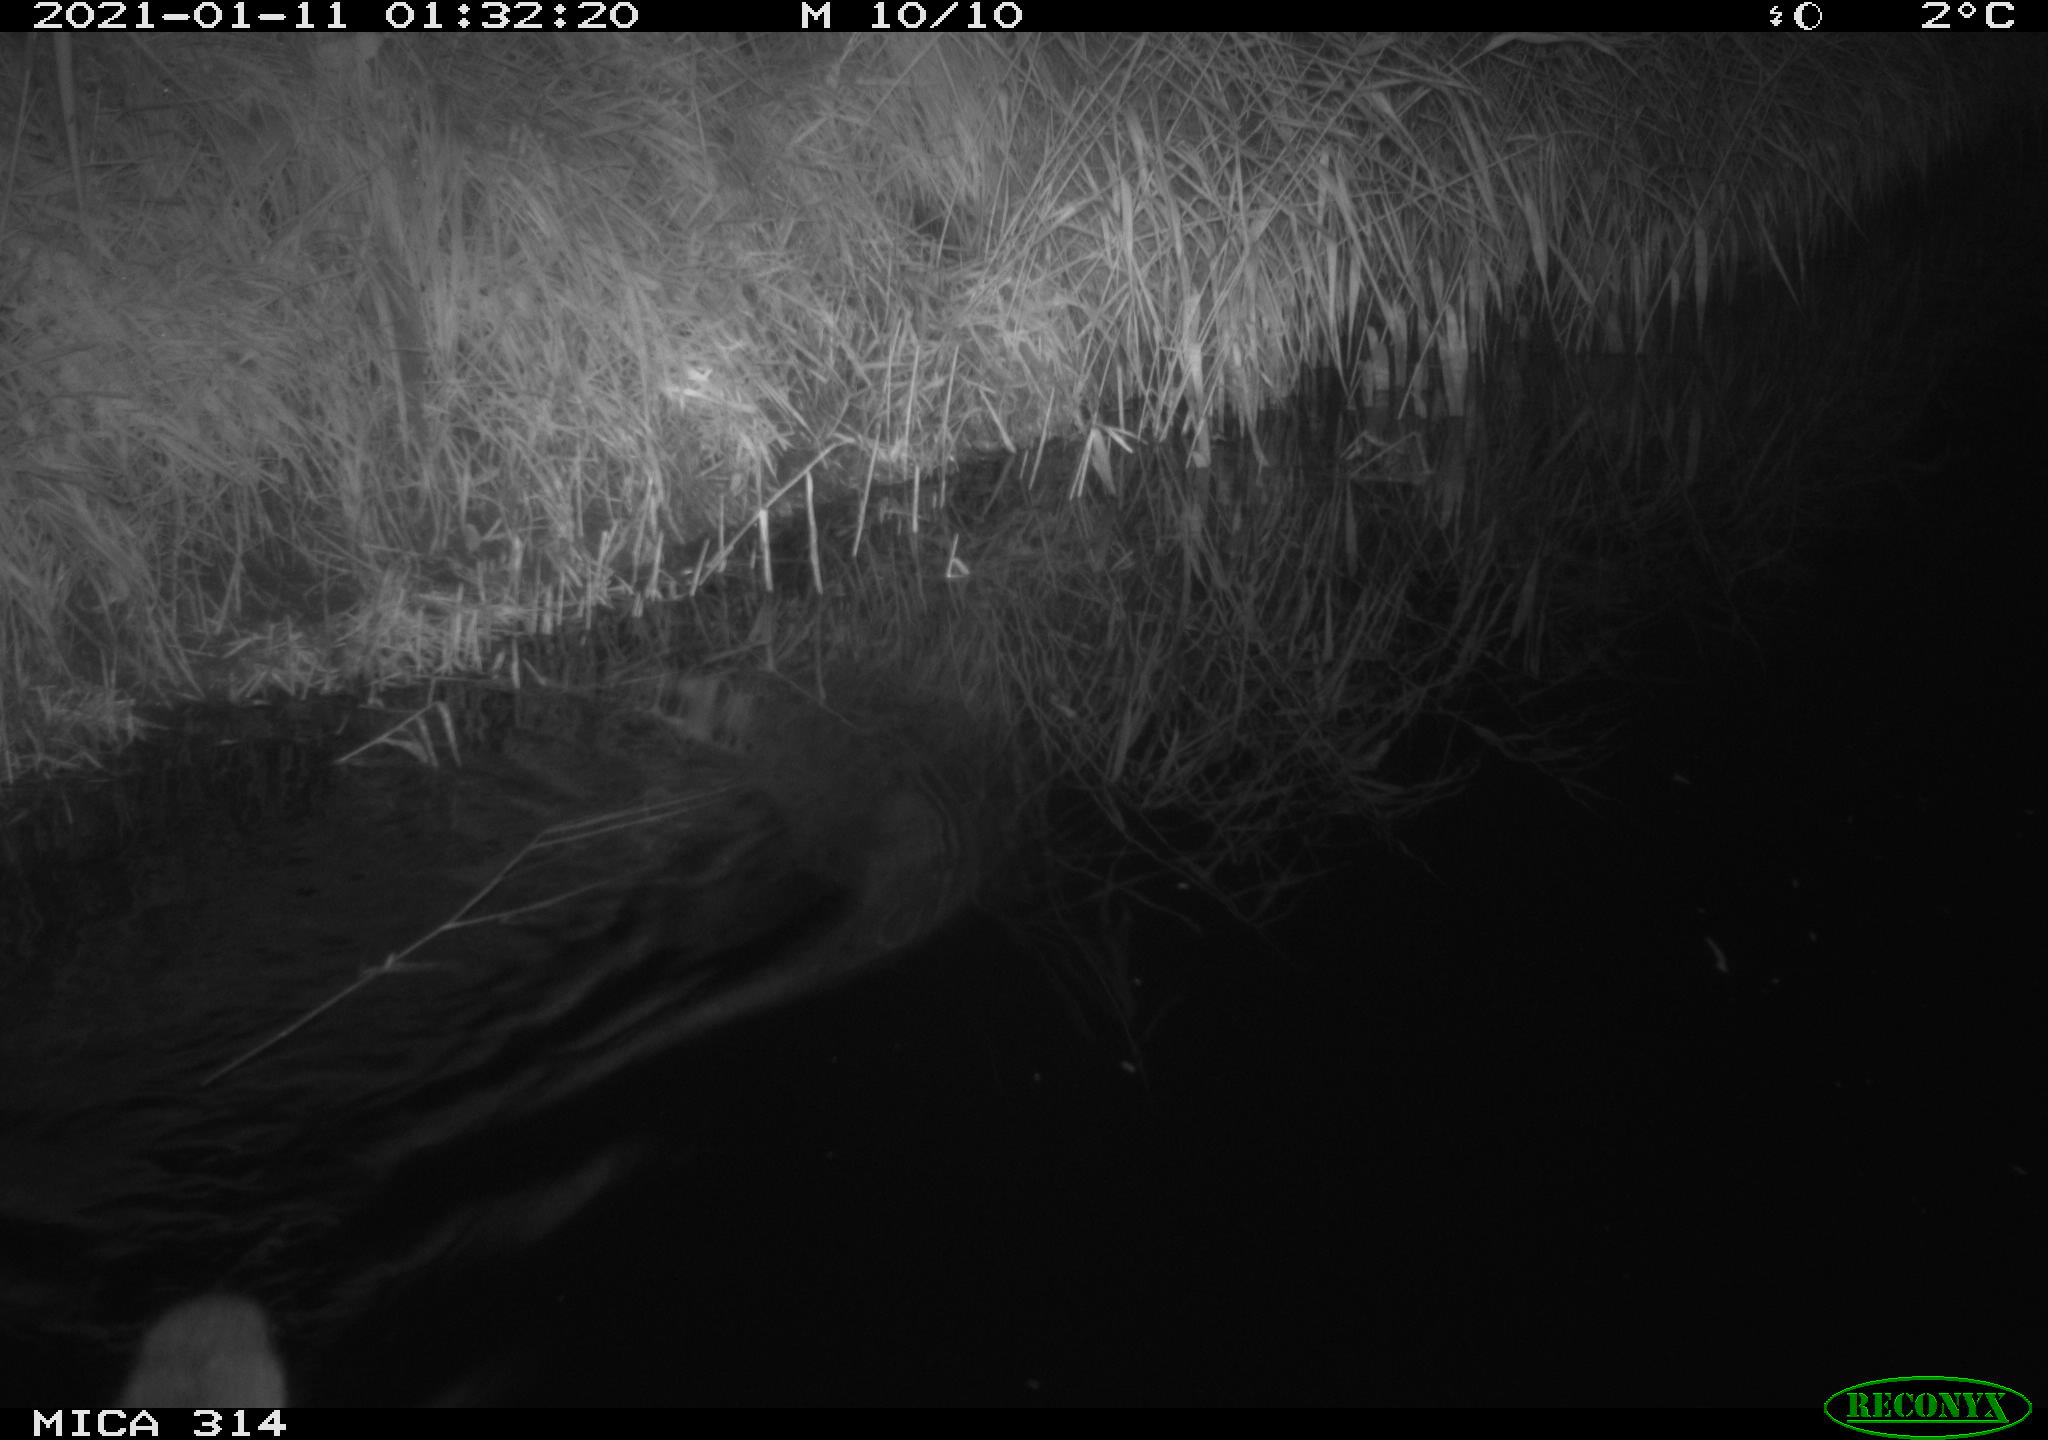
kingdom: Animalia
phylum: Chordata
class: Mammalia
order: Rodentia
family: Muridae
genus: Rattus
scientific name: Rattus norvegicus
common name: Brown rat
